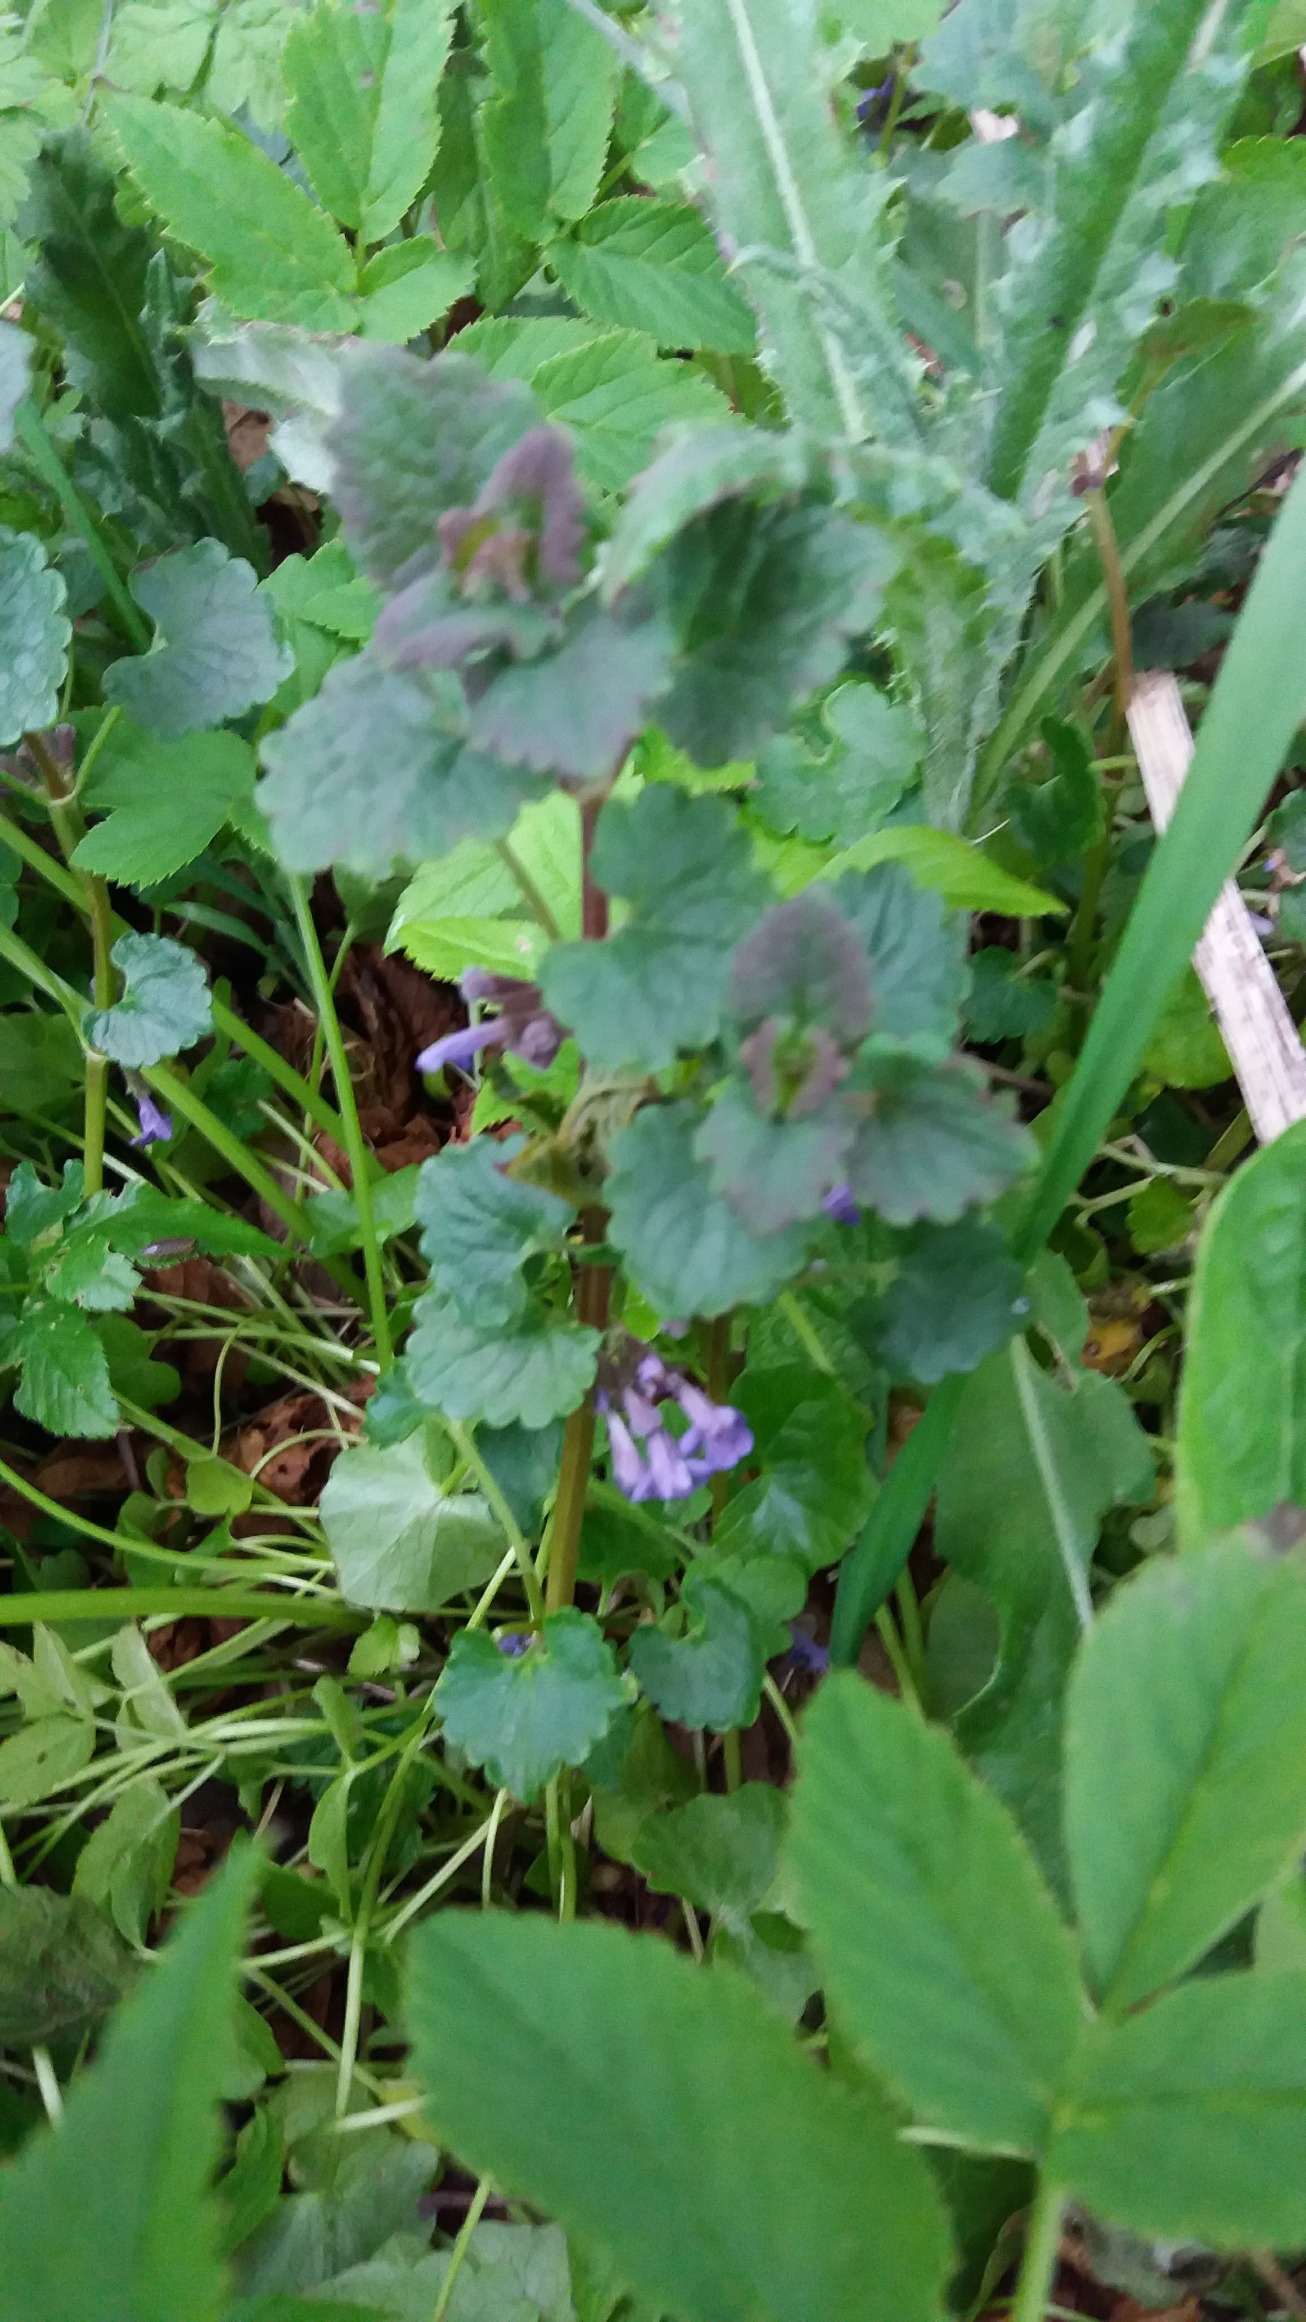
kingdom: Plantae
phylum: Tracheophyta
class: Magnoliopsida
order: Lamiales
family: Lamiaceae
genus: Glechoma
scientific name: Glechoma hederacea
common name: Korsknap
